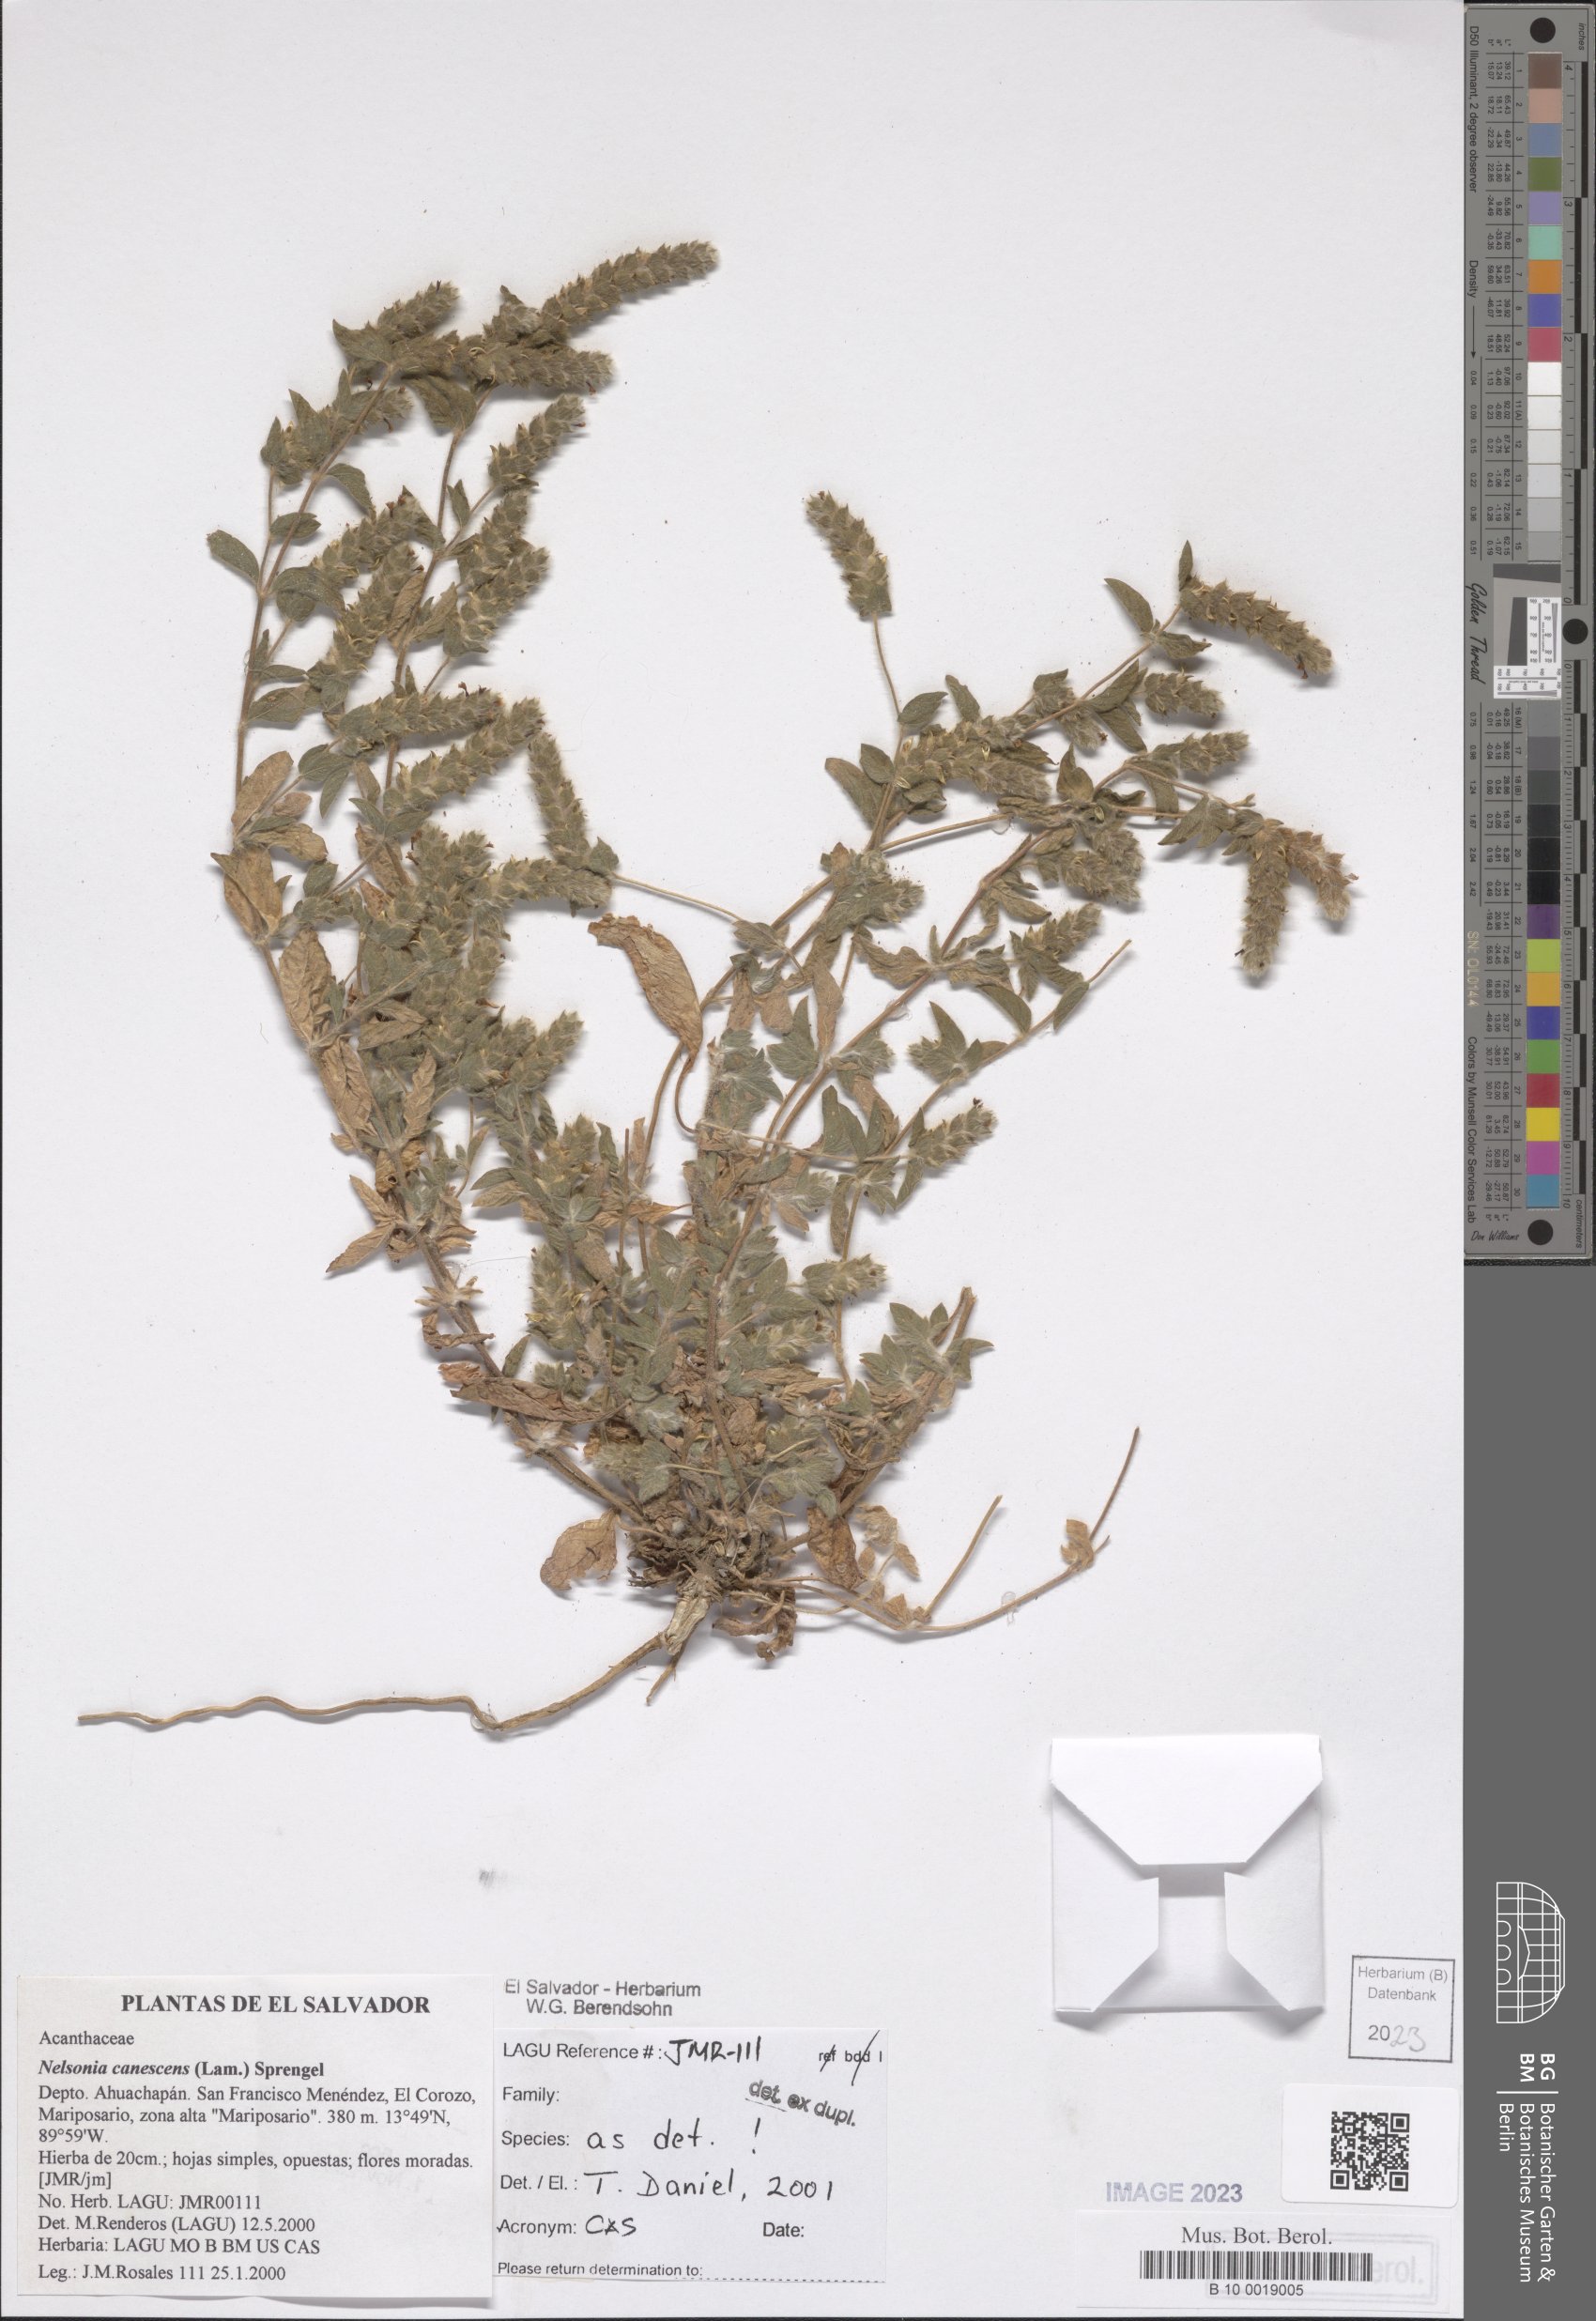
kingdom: Plantae
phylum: Tracheophyta
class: Magnoliopsida
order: Lamiales
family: Acanthaceae
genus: Nelsonia
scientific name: Nelsonia canescens
